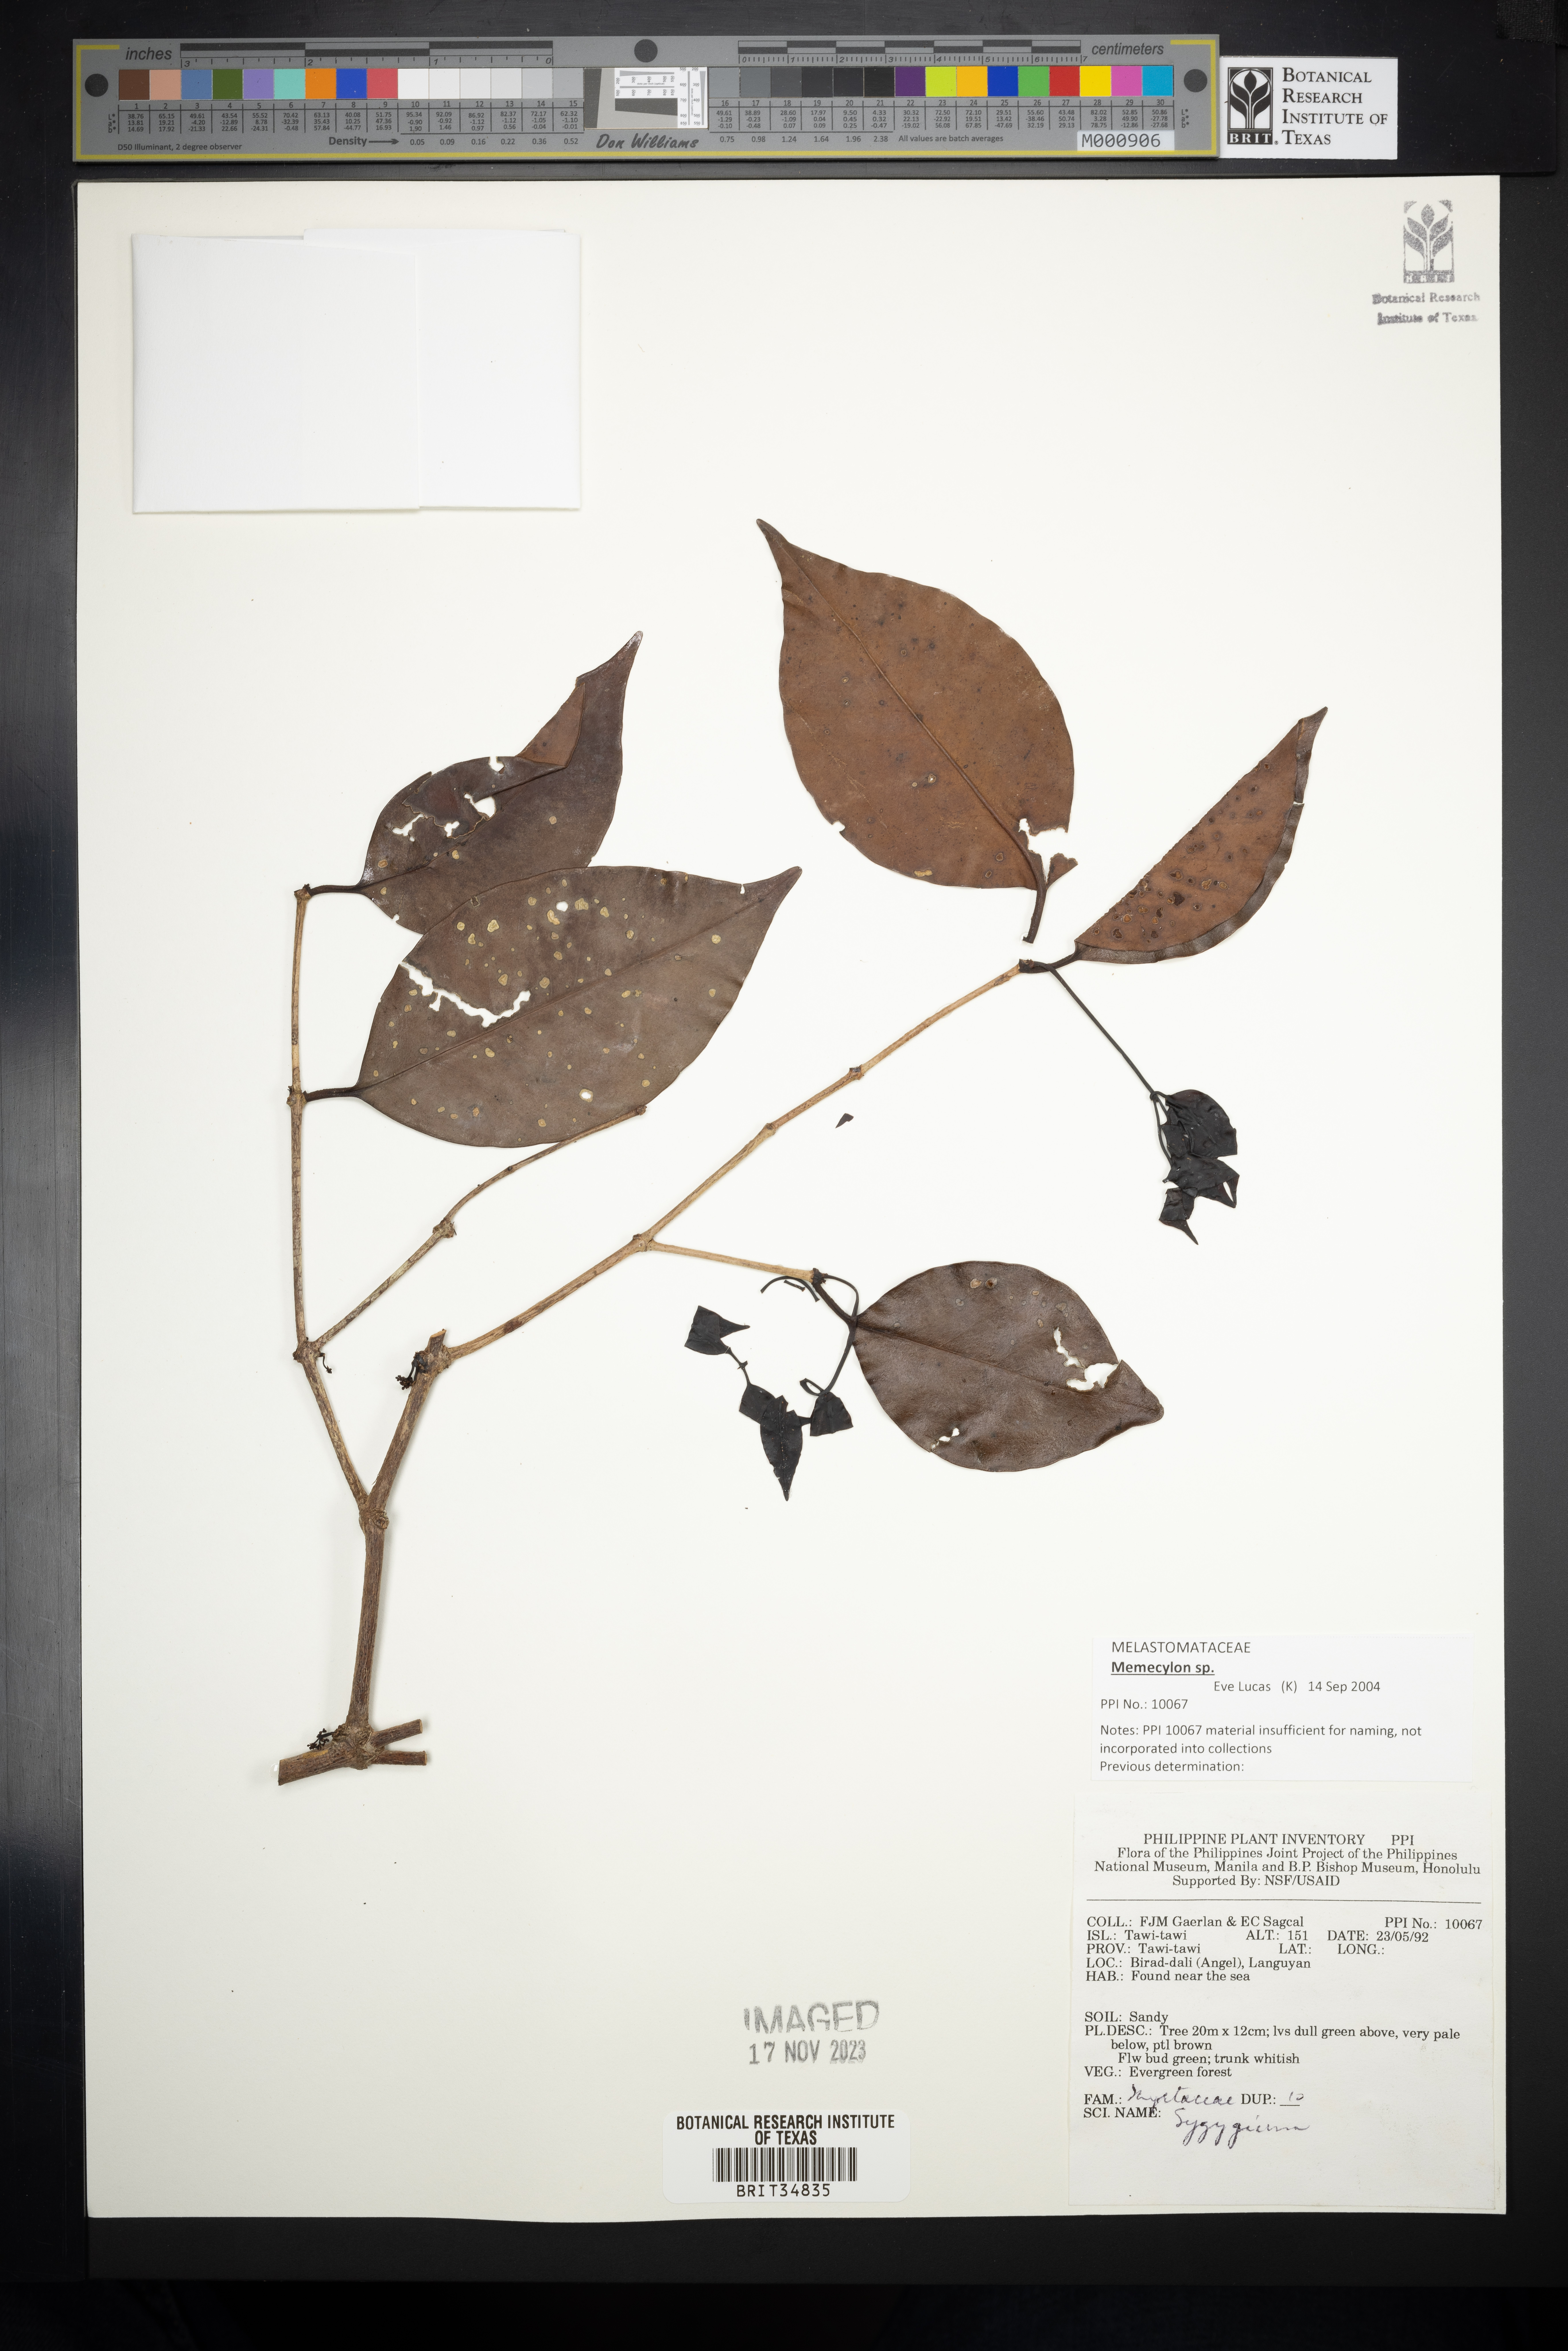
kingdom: Plantae
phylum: Tracheophyta
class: Magnoliopsida
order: Myrtales
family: Myrtaceae
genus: Syzygium
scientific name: Syzygium
